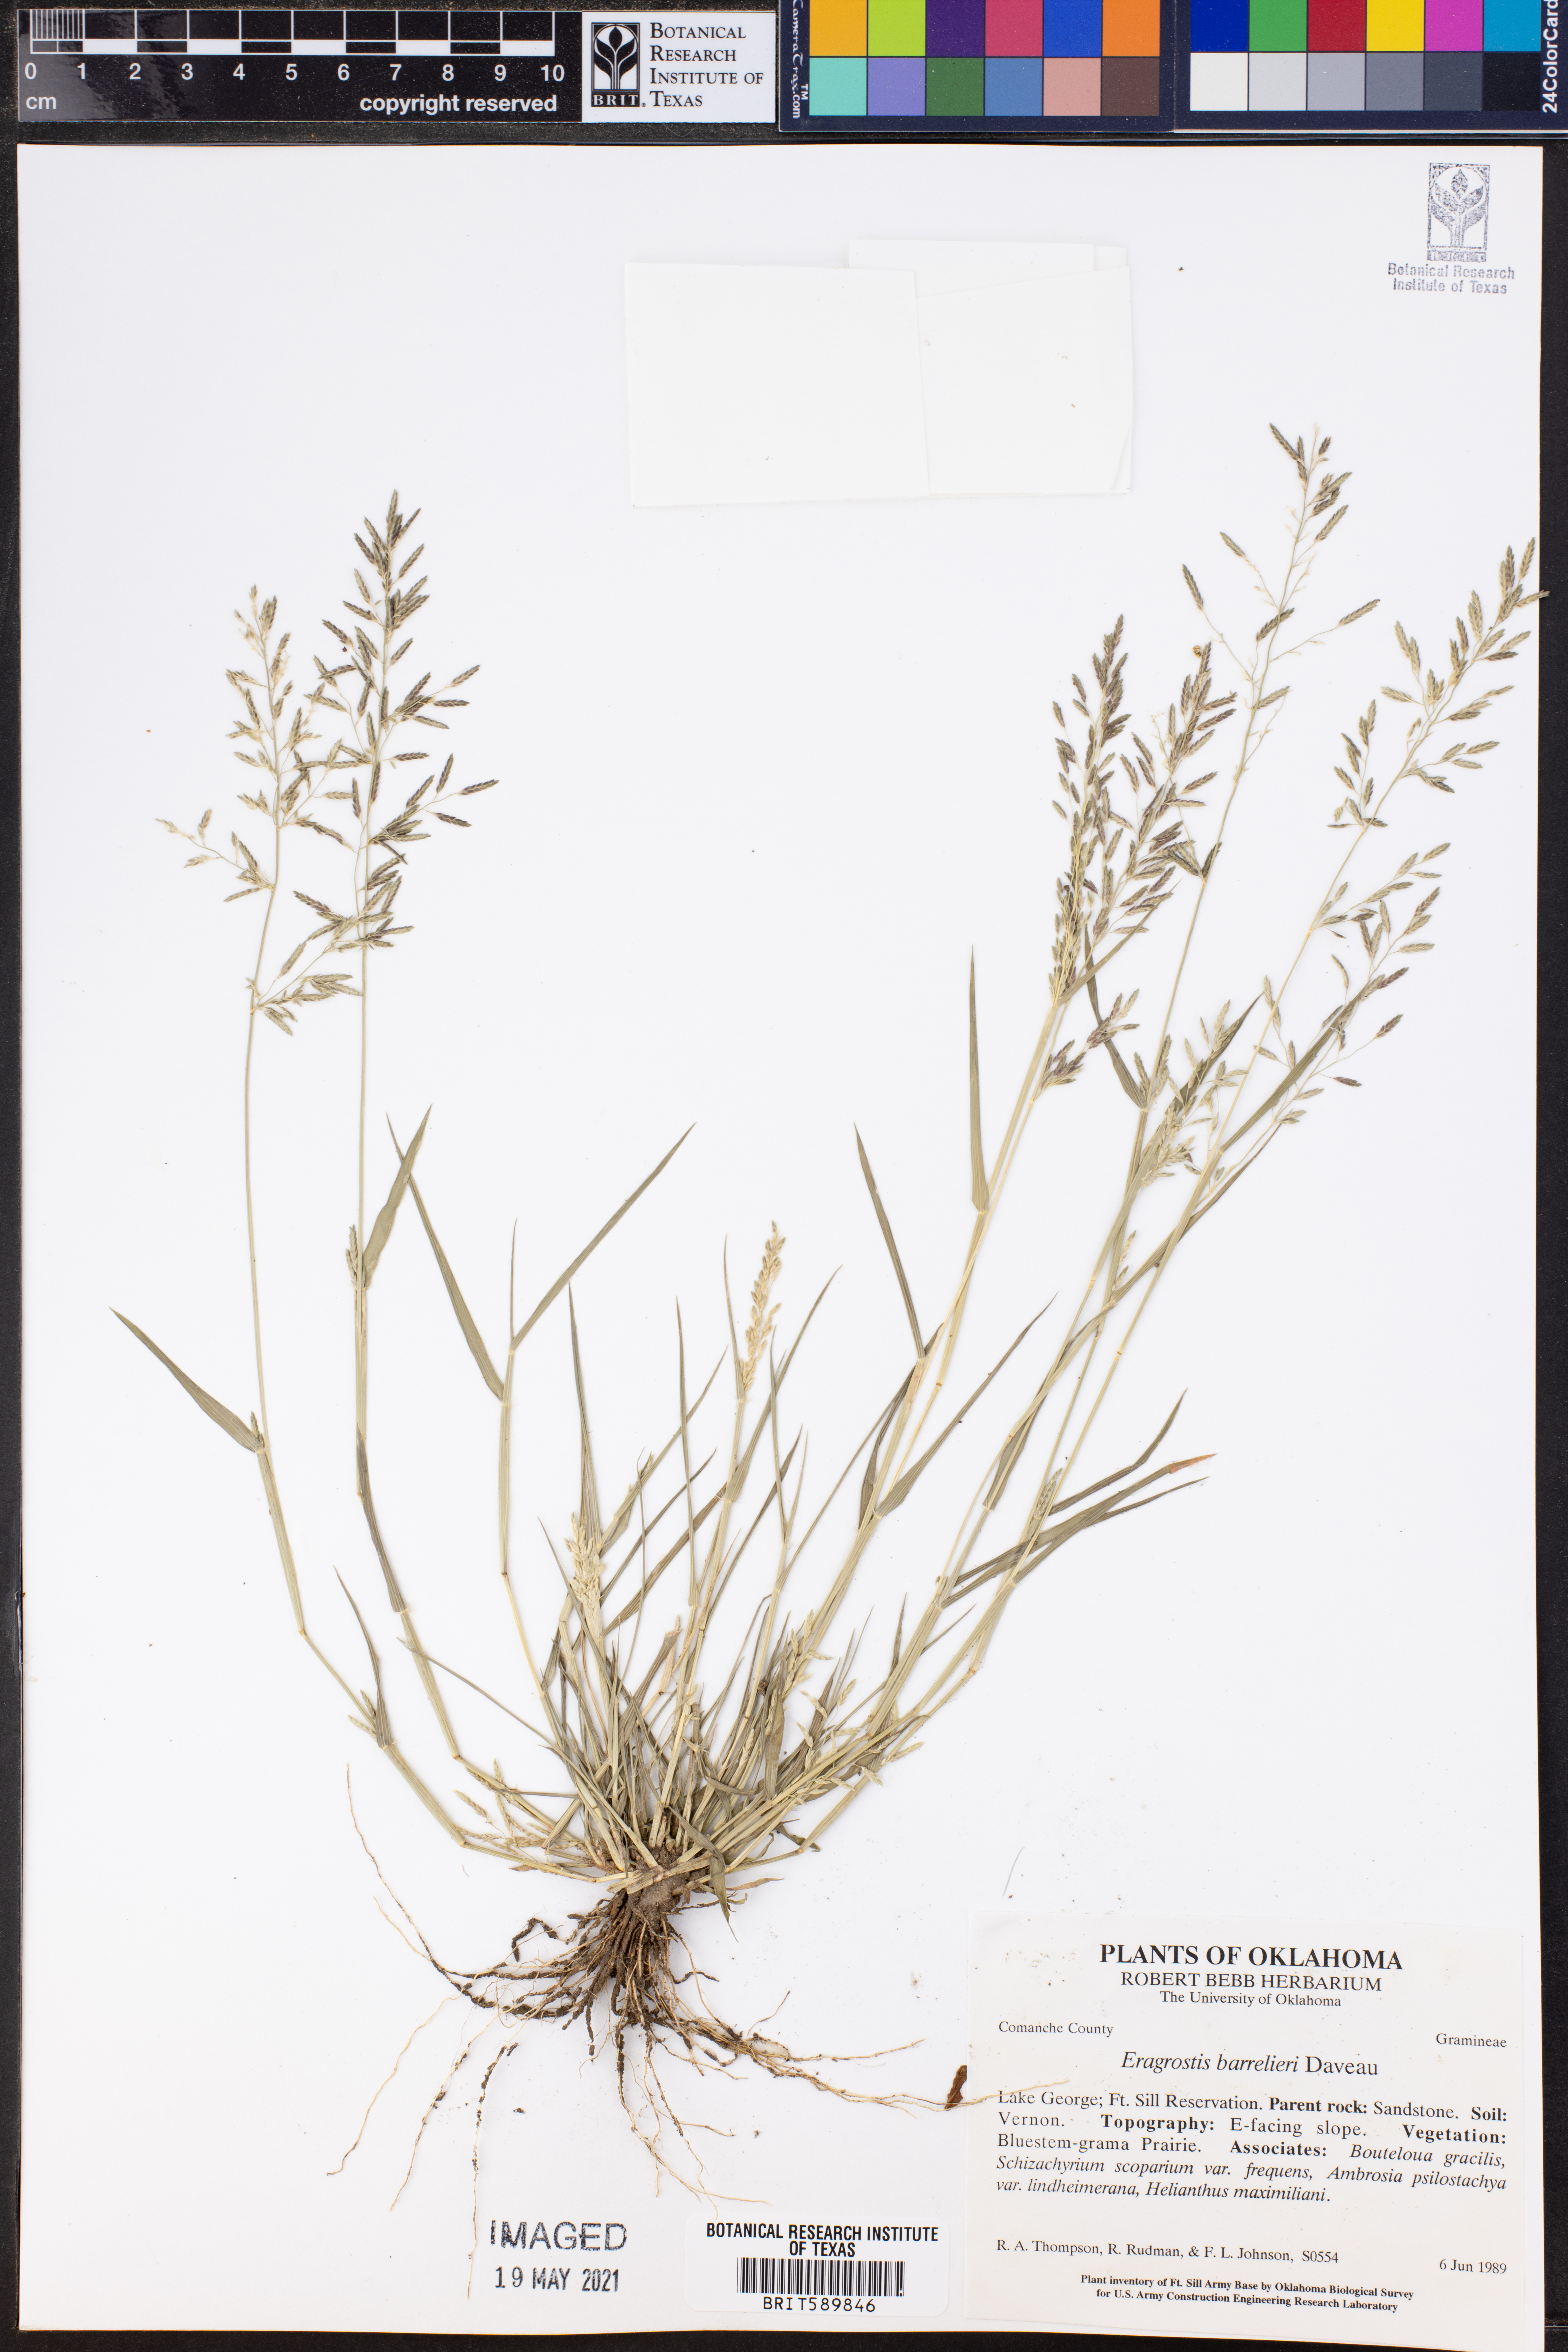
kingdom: Plantae
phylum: Tracheophyta
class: Liliopsida
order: Poales
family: Poaceae
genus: Eragrostis
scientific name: Eragrostis barrelieri
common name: Mediterranean lovegrass
